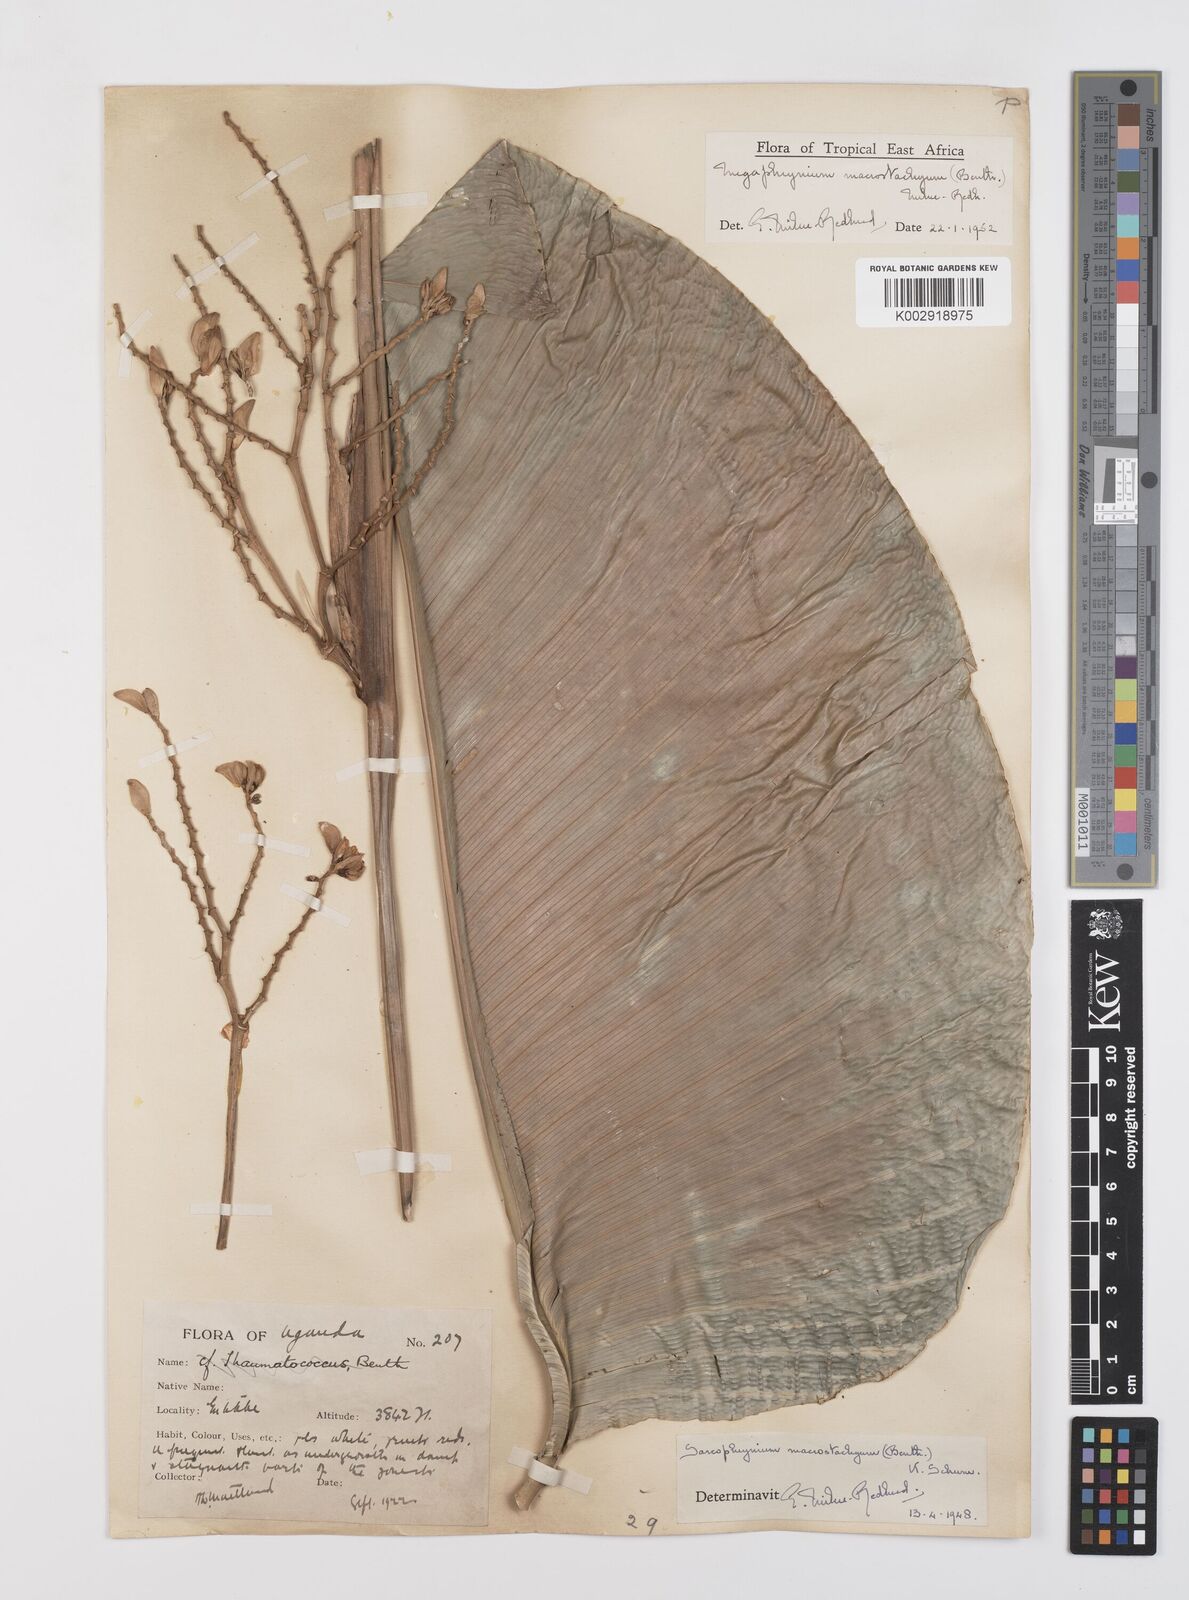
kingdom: Plantae
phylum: Tracheophyta
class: Liliopsida
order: Zingiberales
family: Marantaceae
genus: Megaphrynium
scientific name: Megaphrynium macrostachyum
